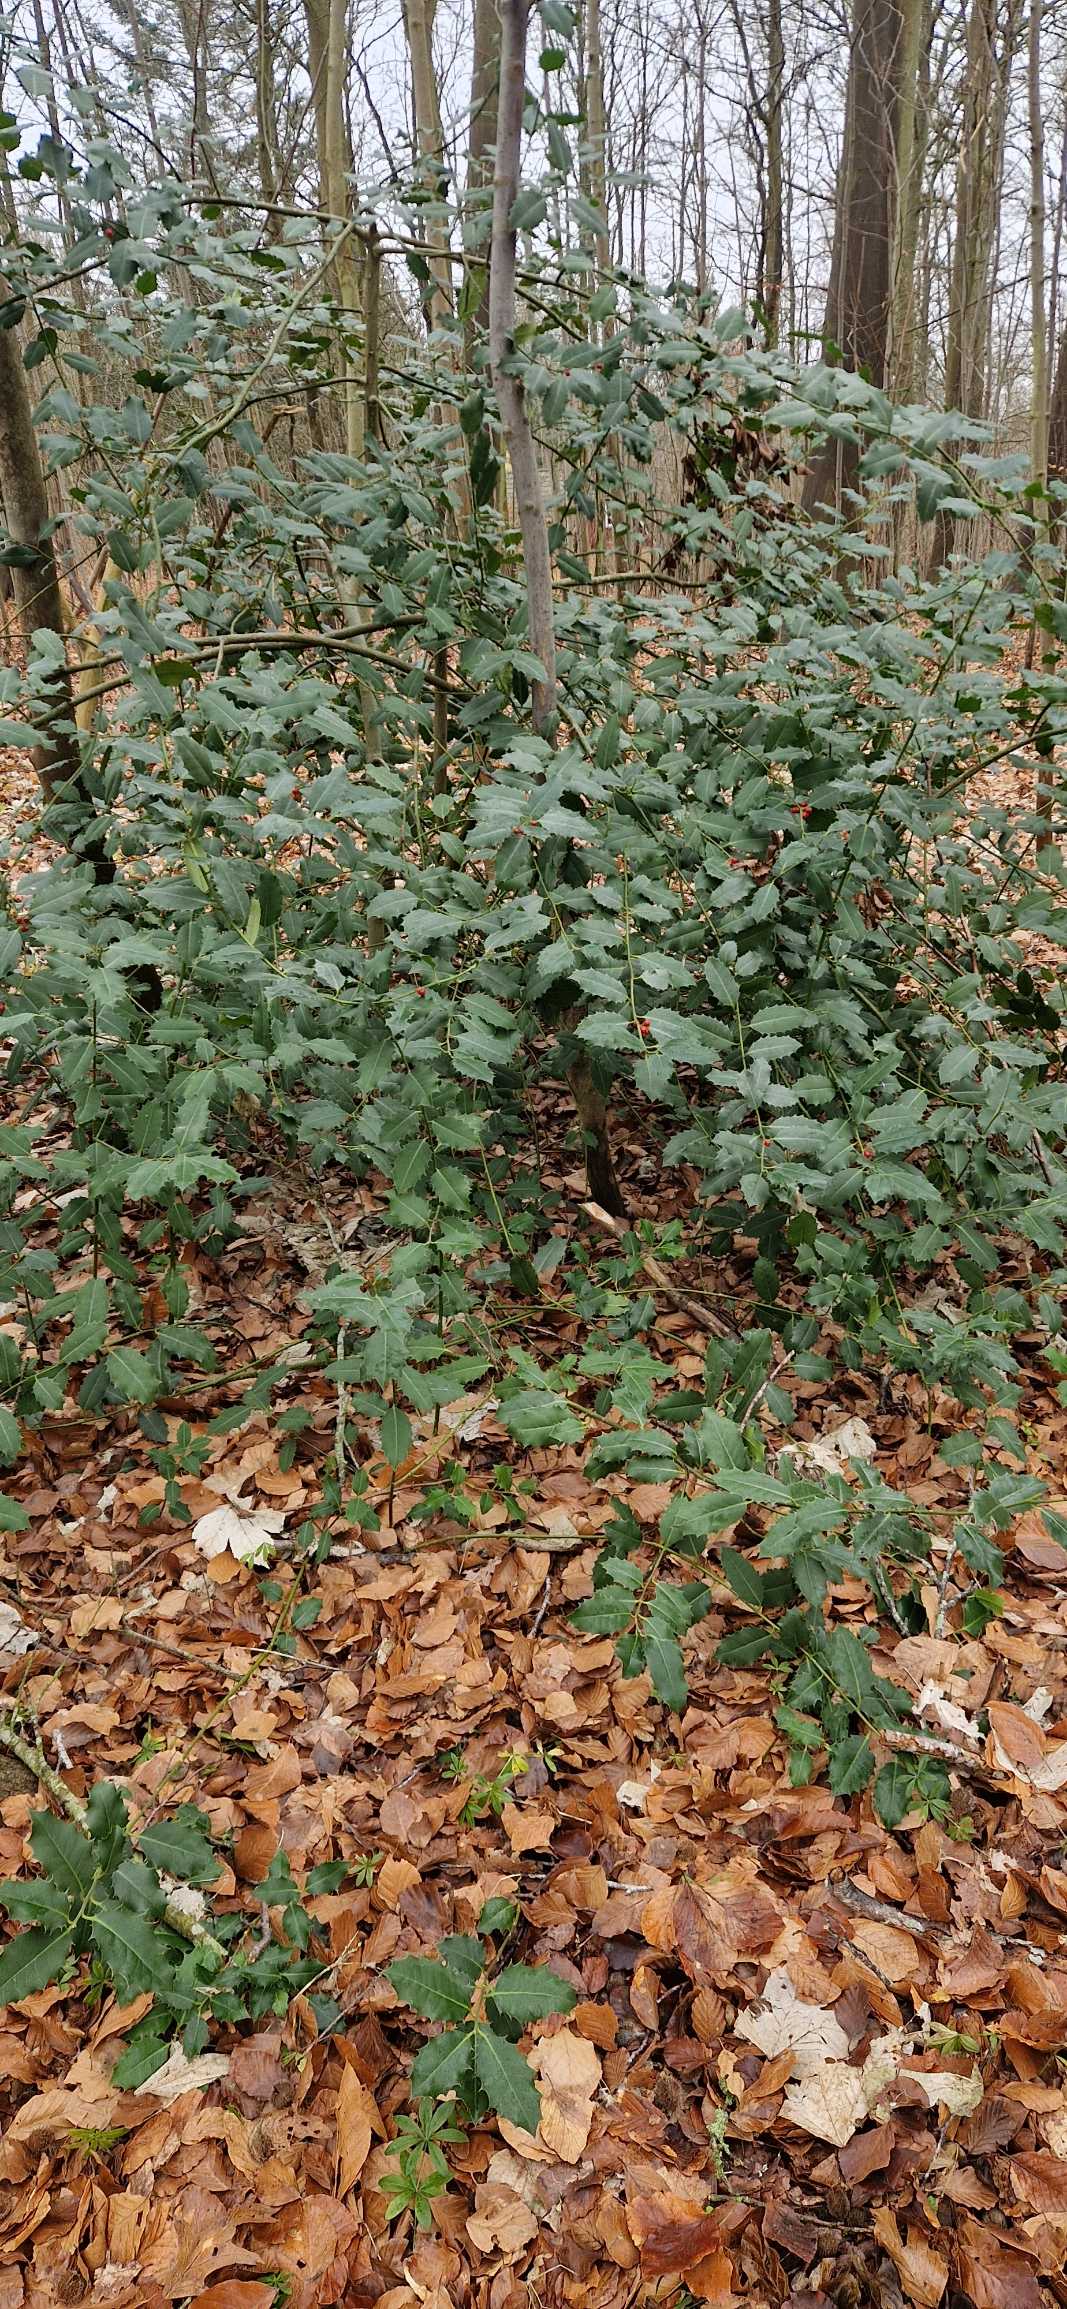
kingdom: Plantae
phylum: Tracheophyta
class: Magnoliopsida
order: Aquifoliales
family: Aquifoliaceae
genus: Ilex
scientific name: Ilex aquifolium
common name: Kristtorn
